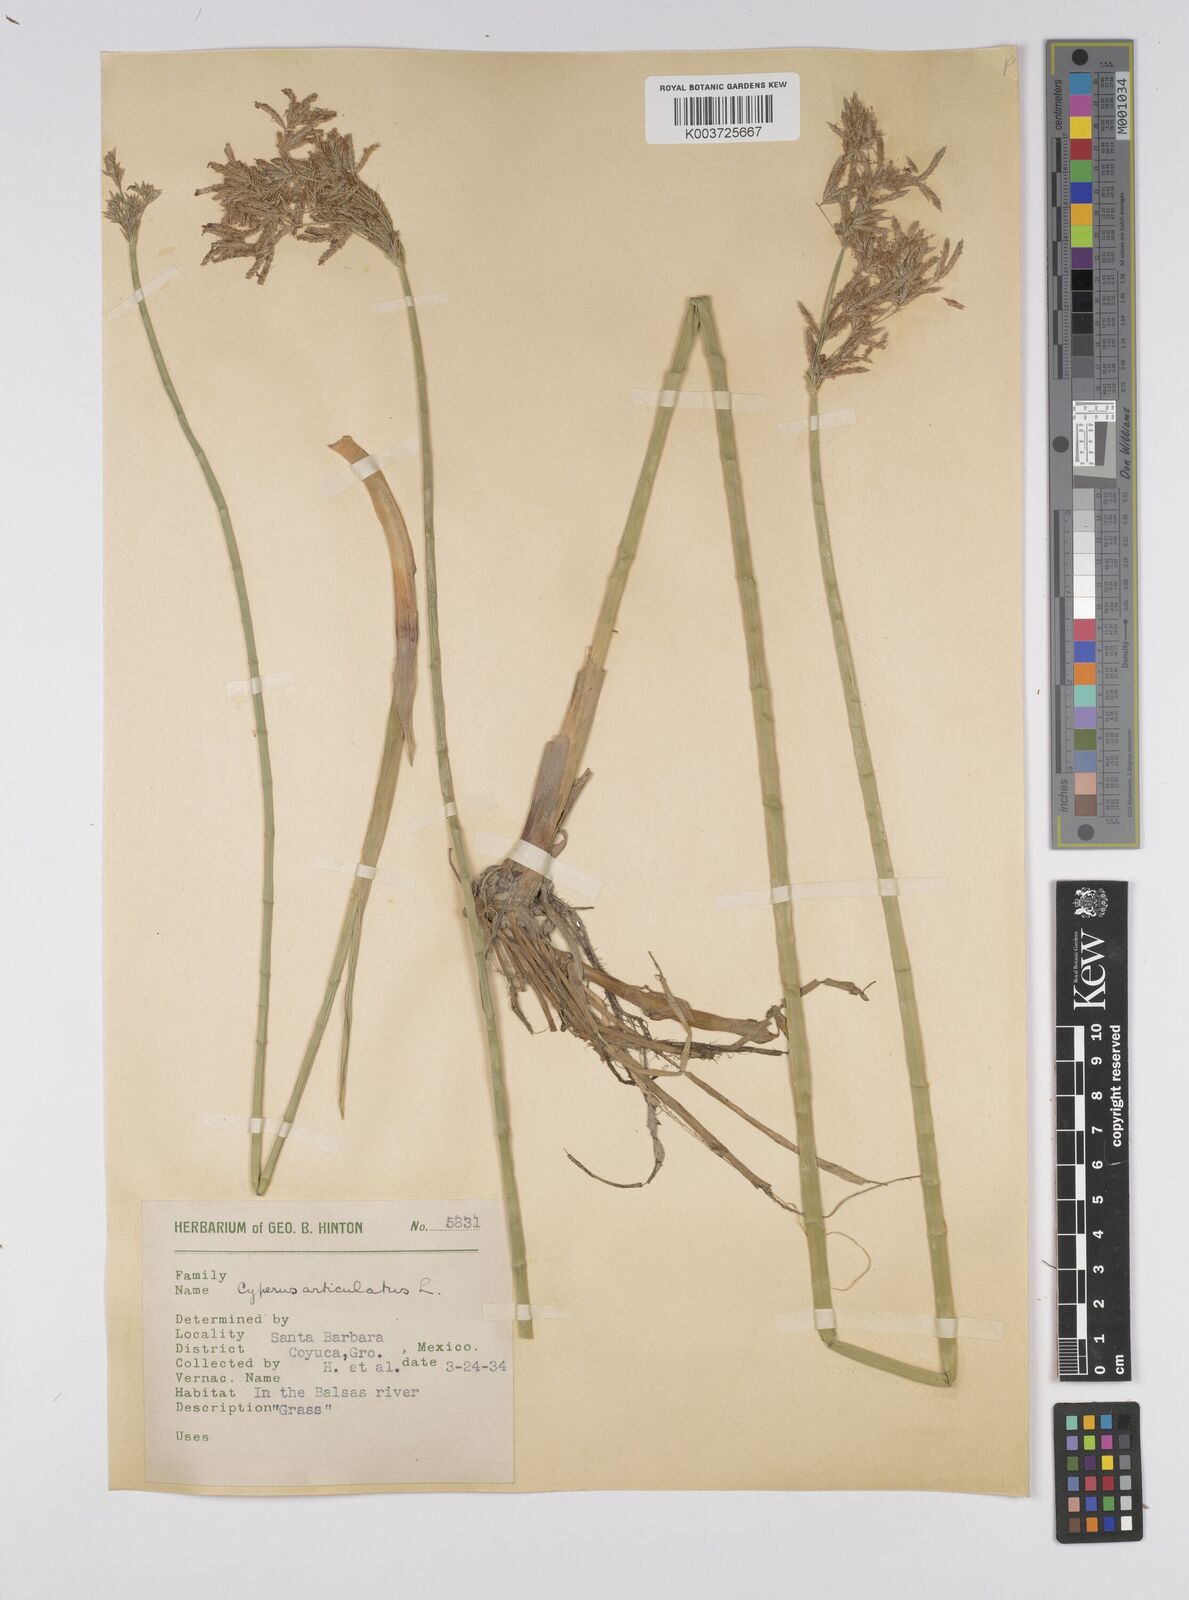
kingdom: Plantae
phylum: Tracheophyta
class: Liliopsida
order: Poales
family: Cyperaceae
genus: Cyperus
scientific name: Cyperus articulatus
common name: Jointed flatsedge
